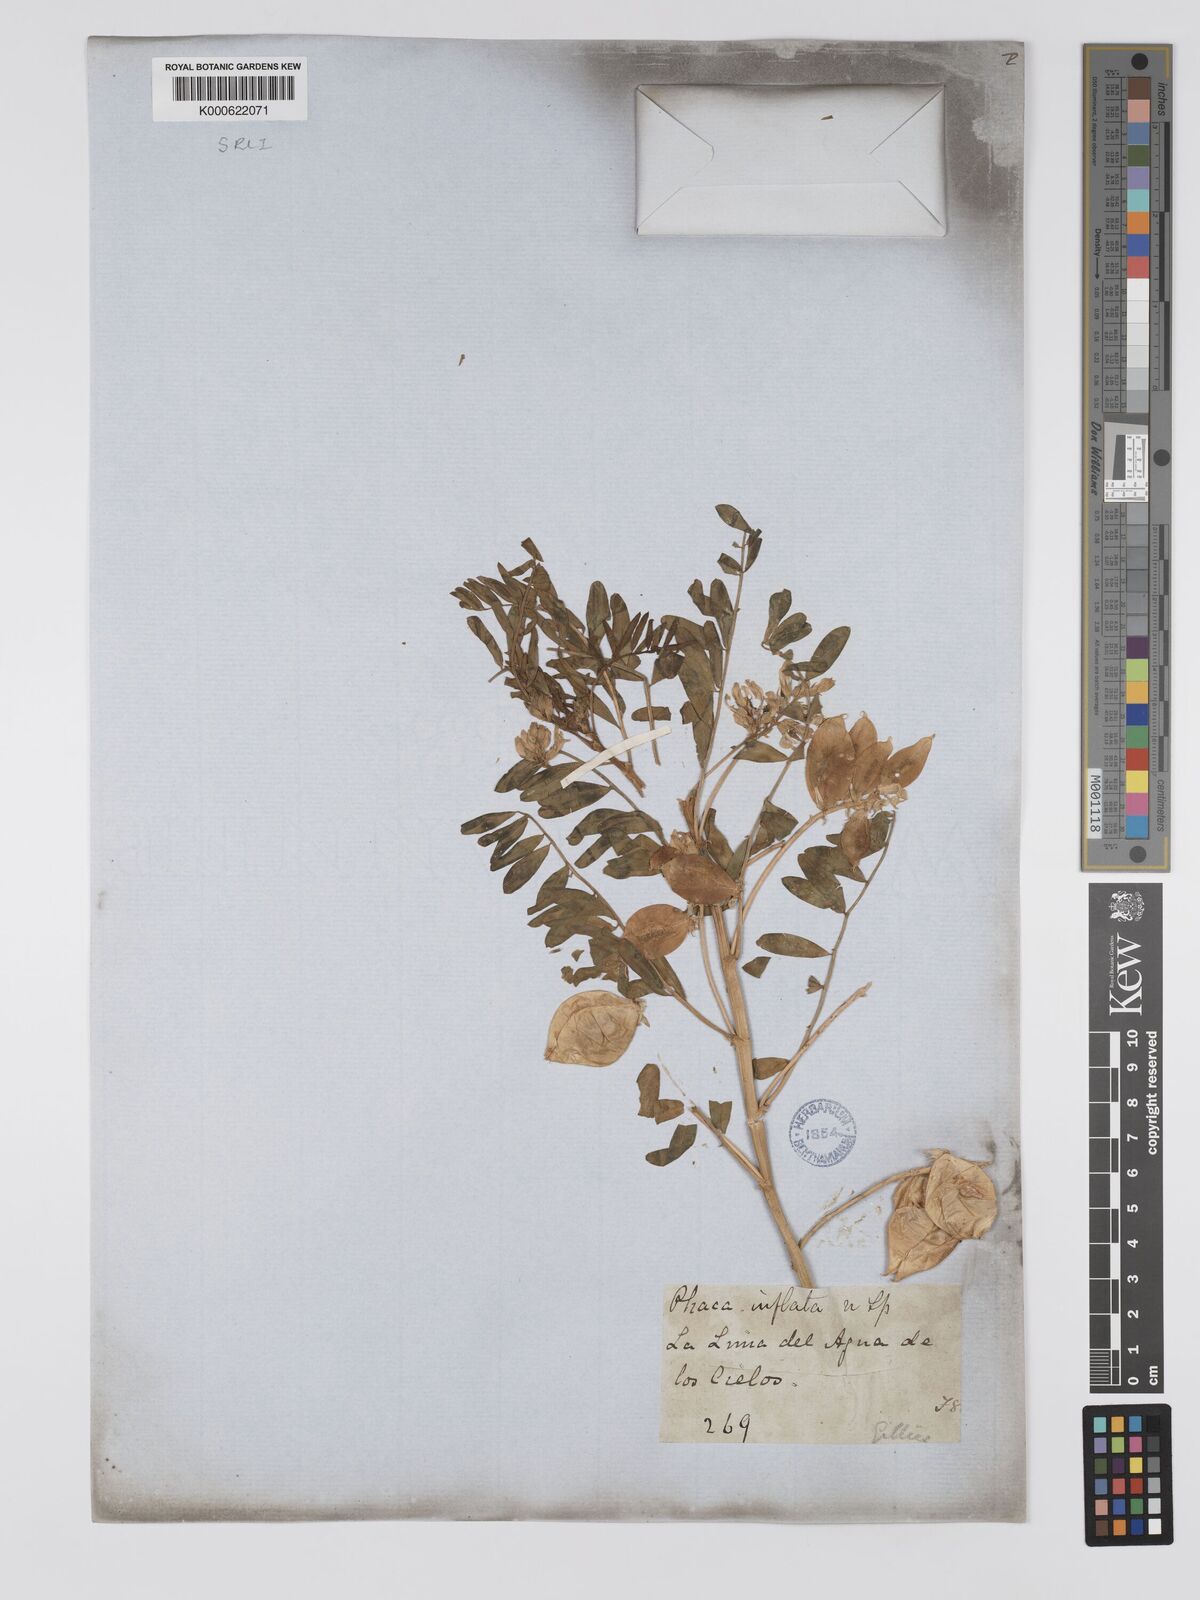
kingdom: Plantae
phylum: Tracheophyta
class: Magnoliopsida
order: Fabales
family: Fabaceae
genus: Astragalus
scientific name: Astragalus
